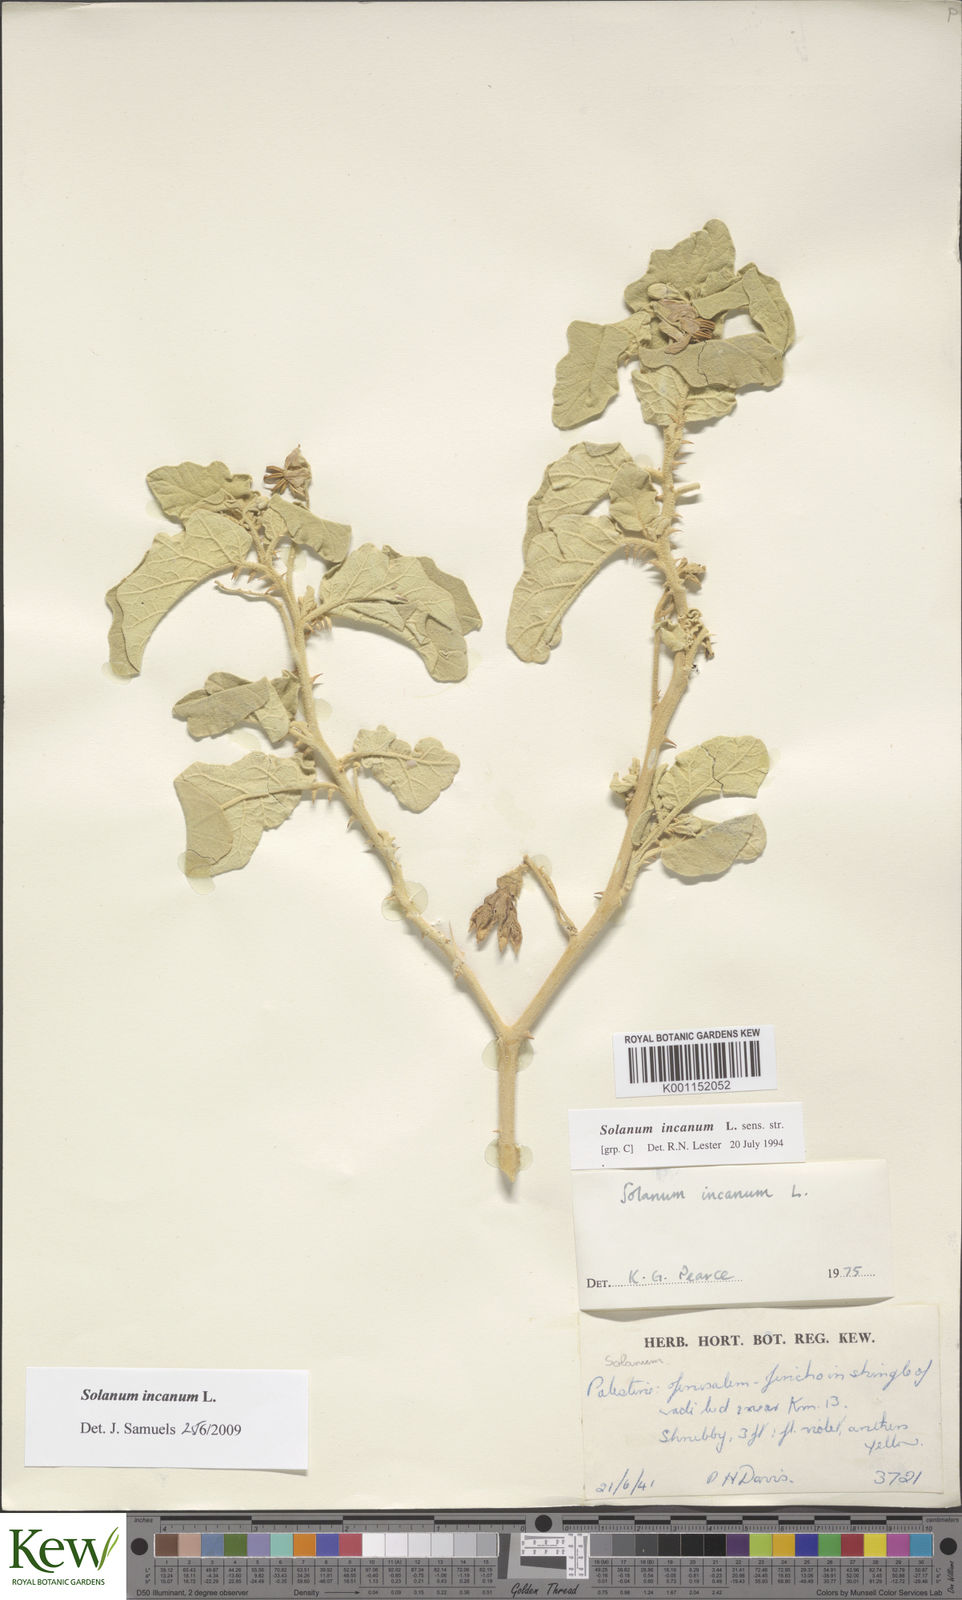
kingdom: Plantae
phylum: Tracheophyta
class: Magnoliopsida
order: Solanales
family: Solanaceae
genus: Solanum
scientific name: Solanum incanum
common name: Bitter apple
